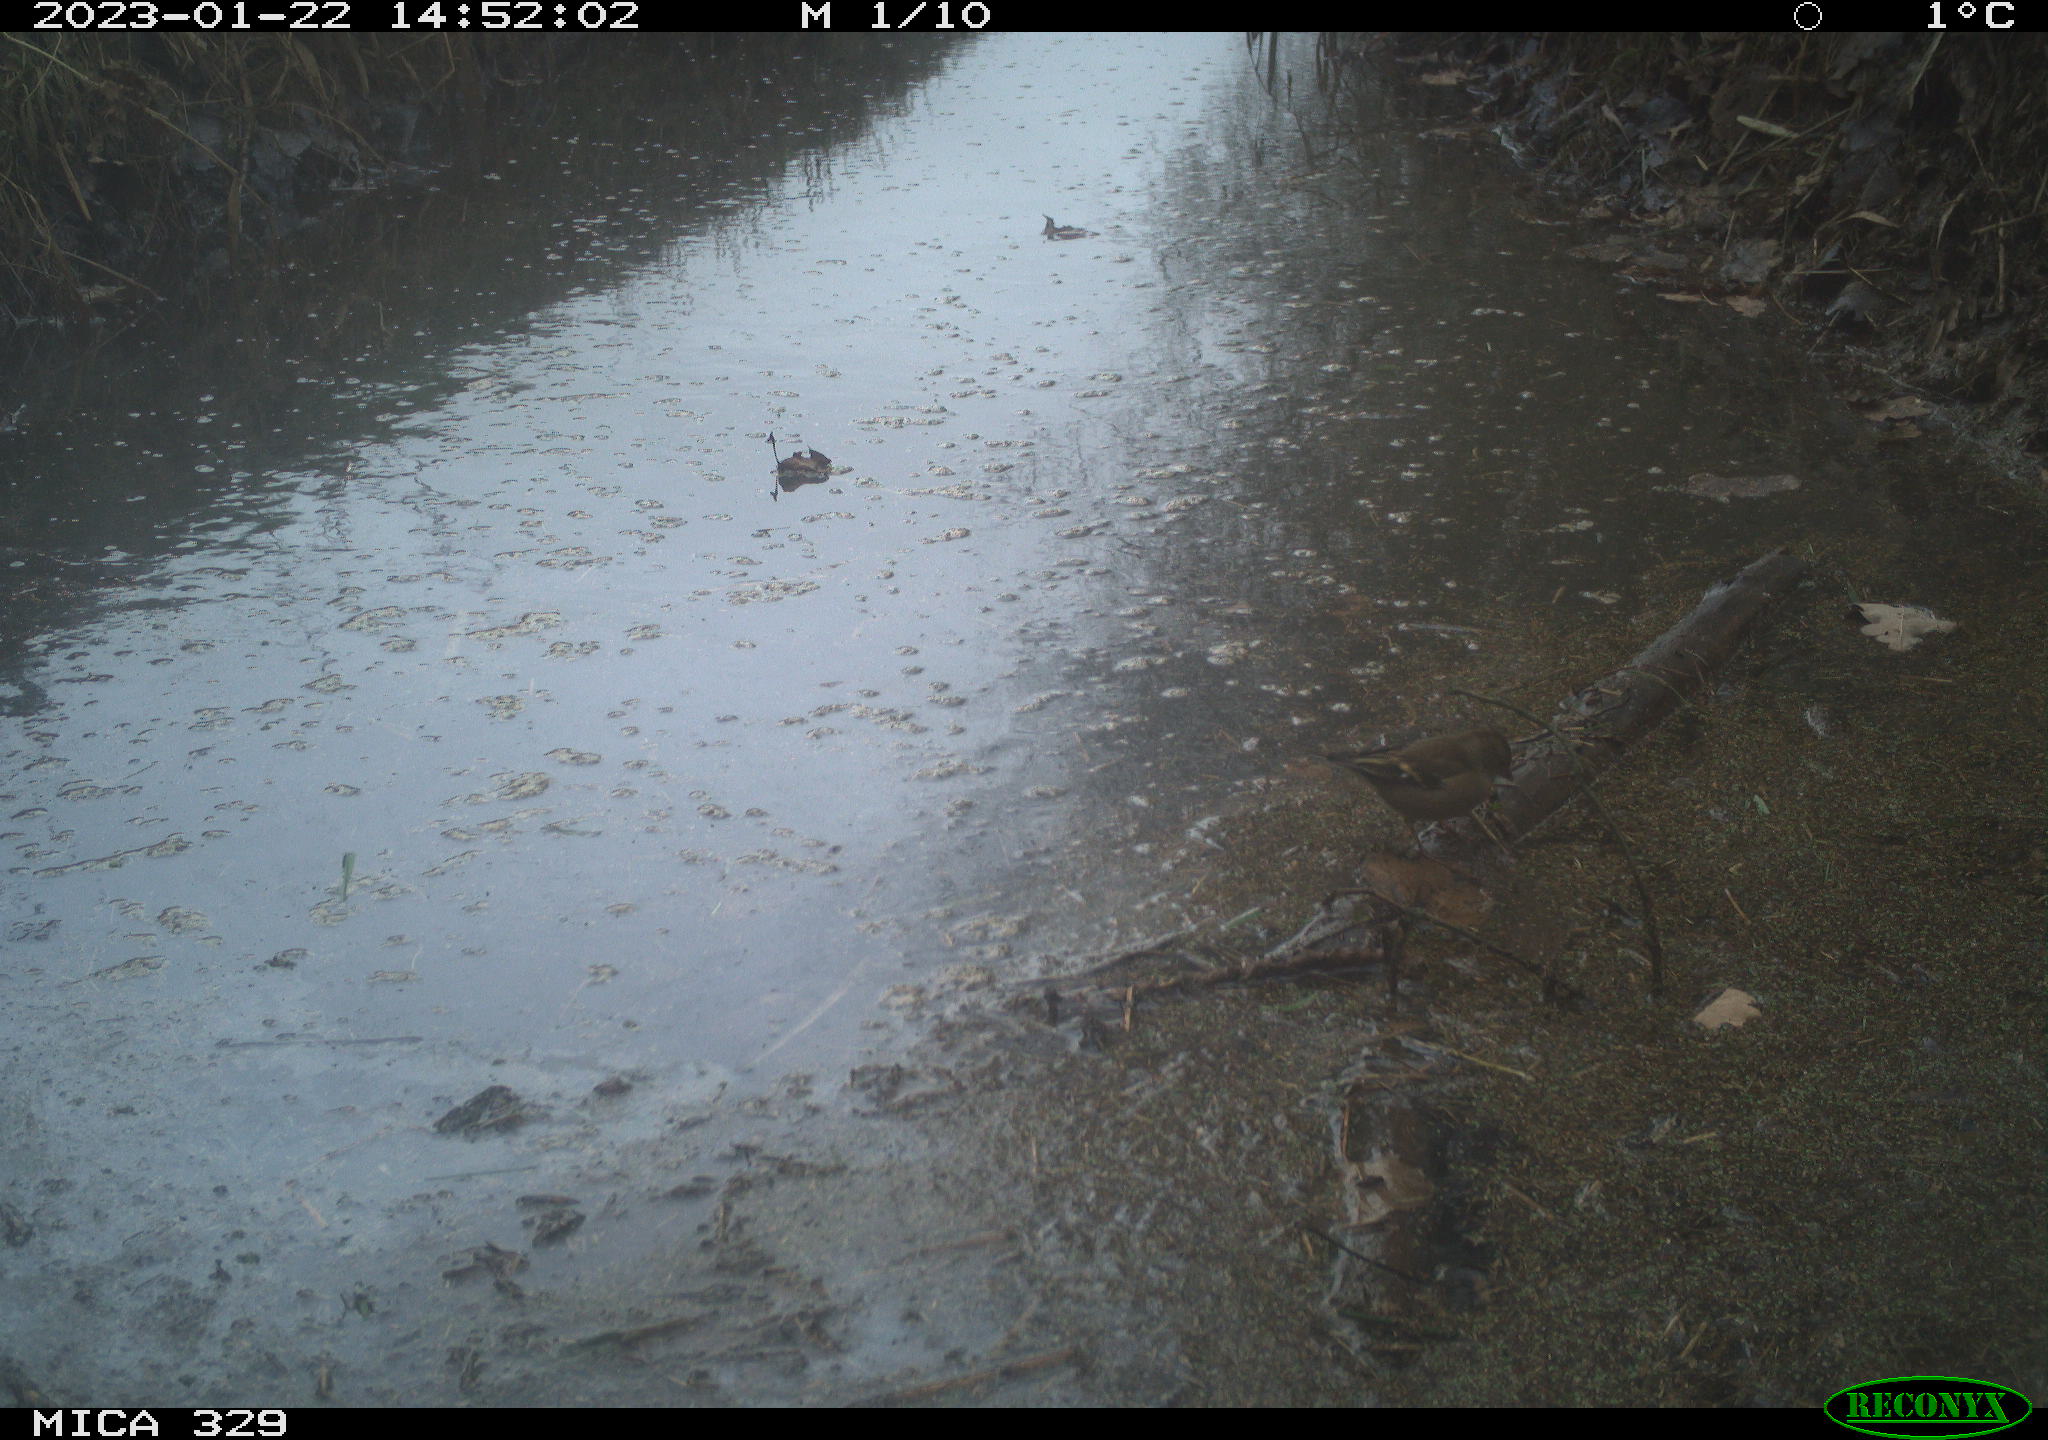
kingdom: Animalia
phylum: Chordata
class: Aves
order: Passeriformes
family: Fringillidae
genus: Fringilla
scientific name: Fringilla coelebs
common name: Common chaffinch
